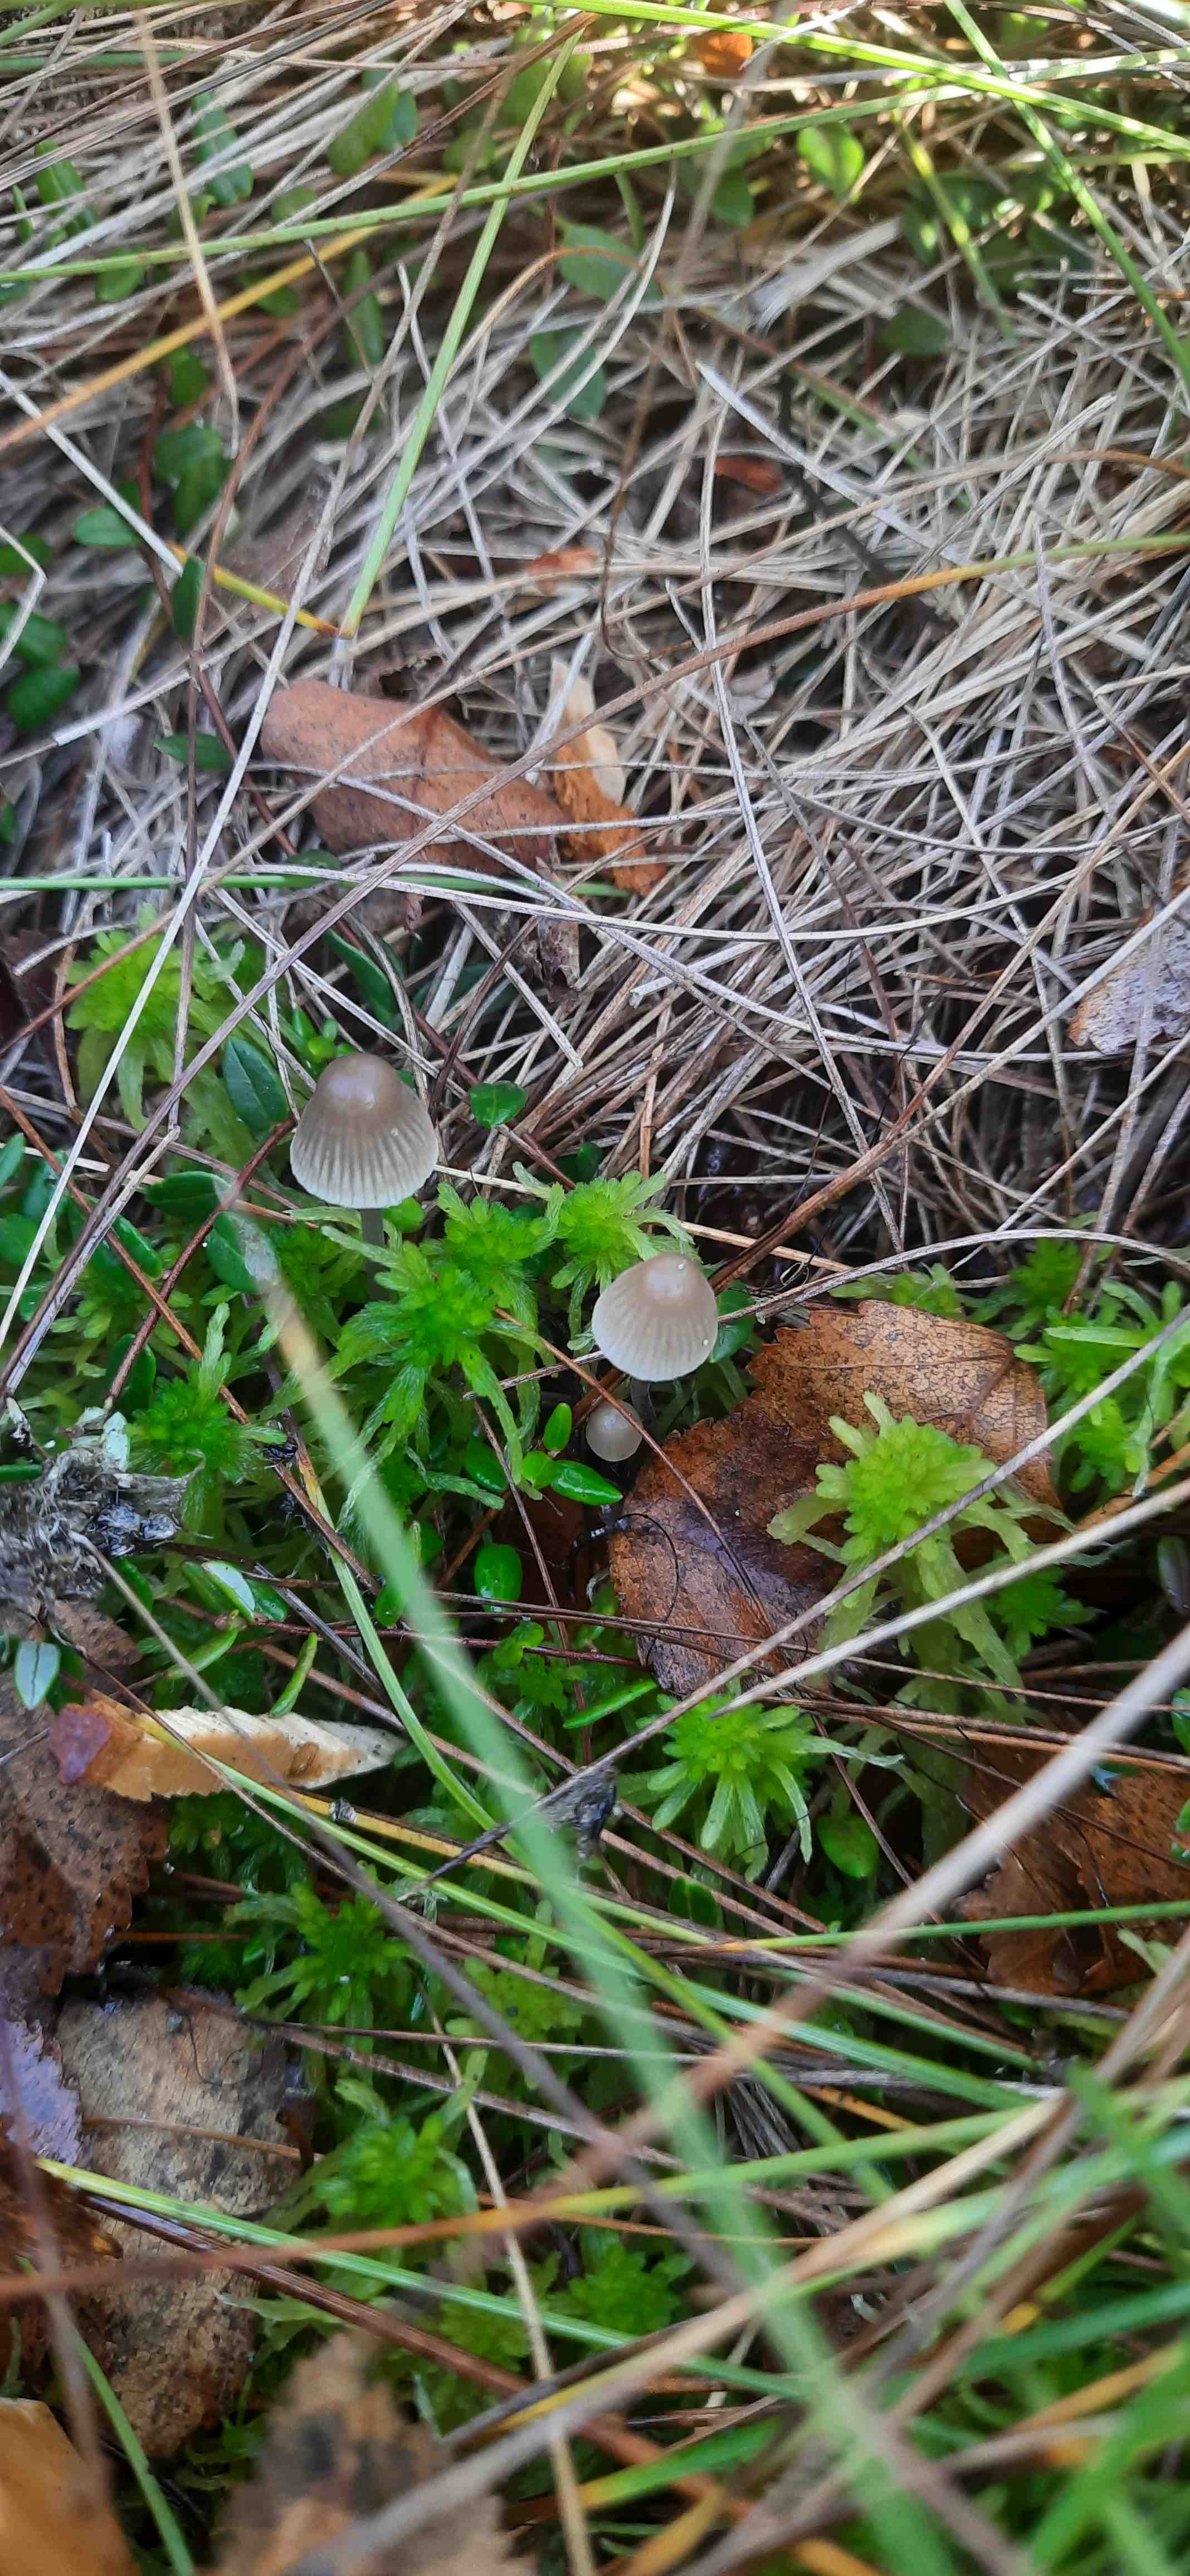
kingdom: Fungi
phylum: Basidiomycota
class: Agaricomycetes
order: Agaricales
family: Mycenaceae
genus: Mycena
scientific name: Mycena
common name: huesvamp
